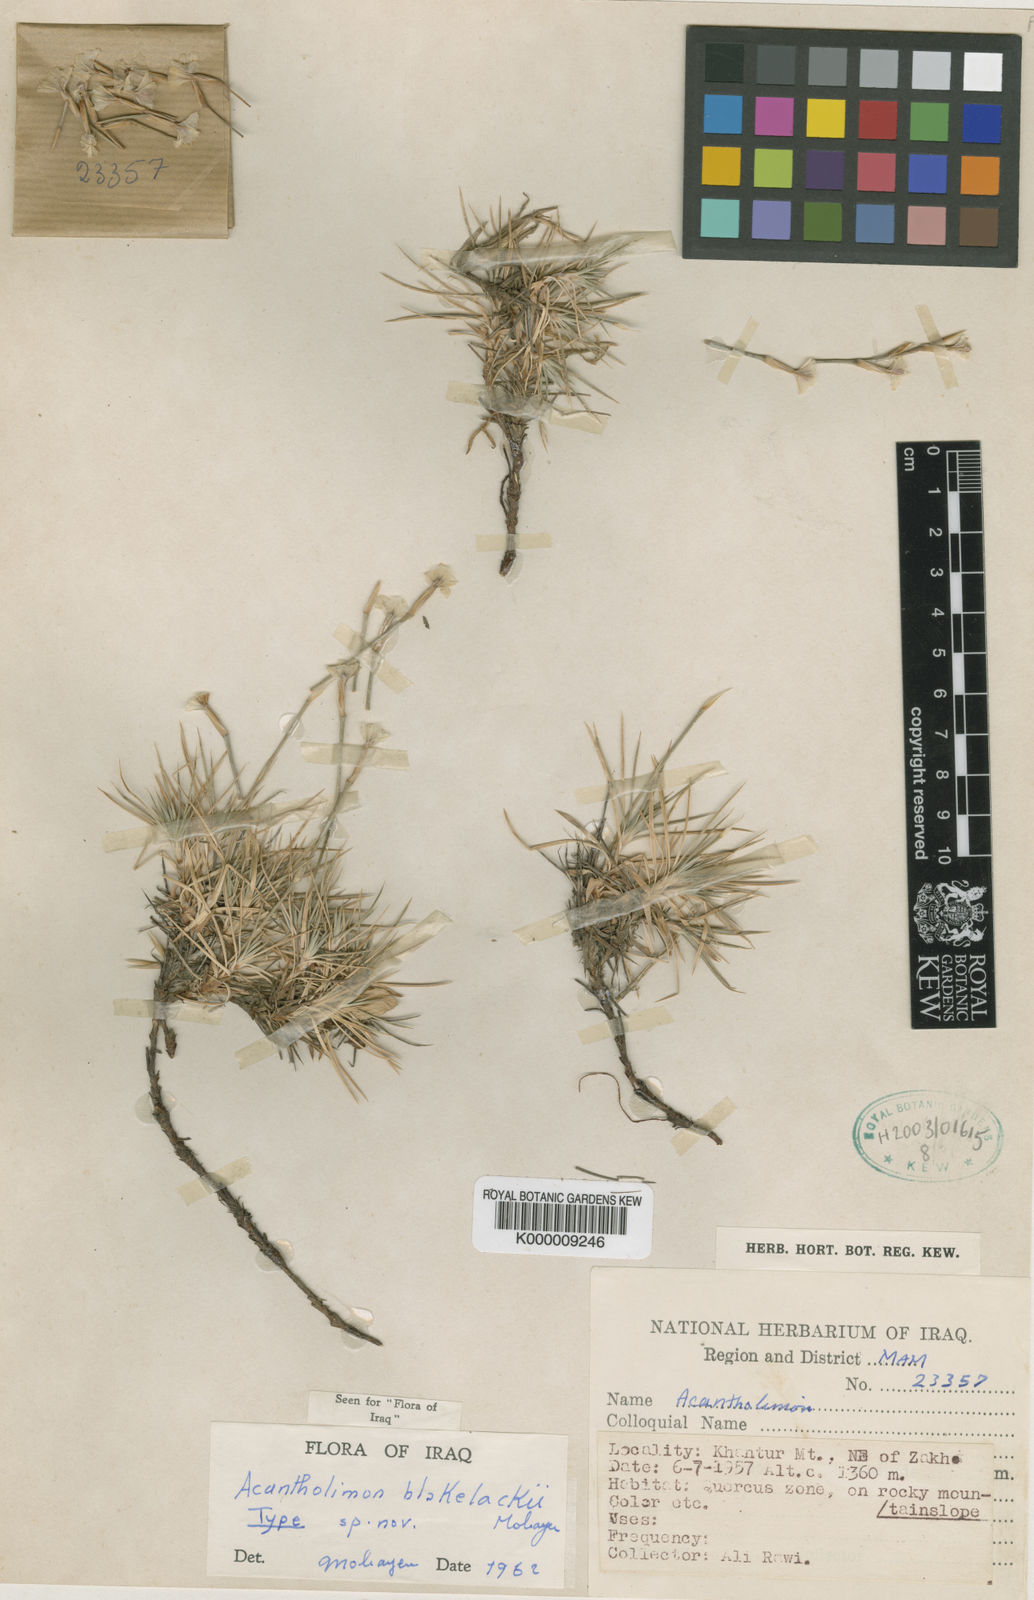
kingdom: Plantae
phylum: Tracheophyta
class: Magnoliopsida
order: Caryophyllales
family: Plumbaginaceae
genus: Acantholimon
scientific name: Acantholimon blakelockii
